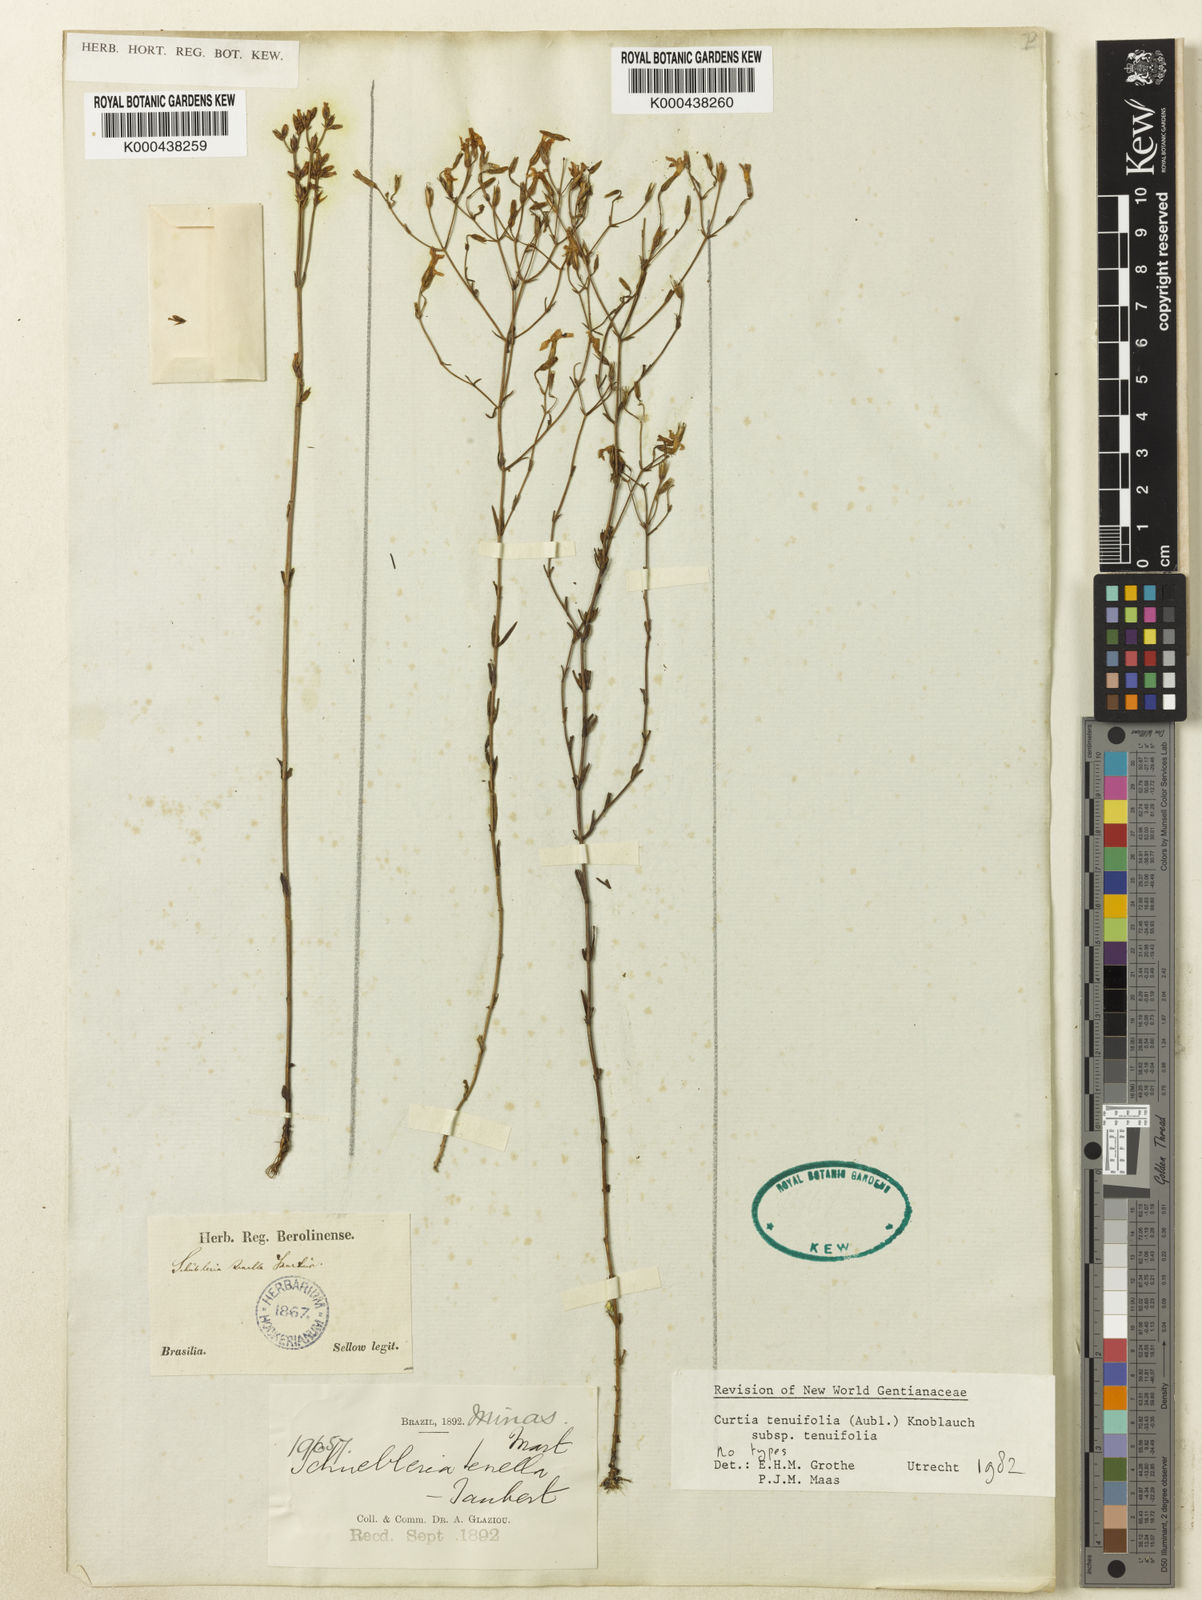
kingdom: Plantae
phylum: Tracheophyta
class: Magnoliopsida
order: Gentianales
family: Gentianaceae
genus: Curtia
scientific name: Curtia tenuifolia
